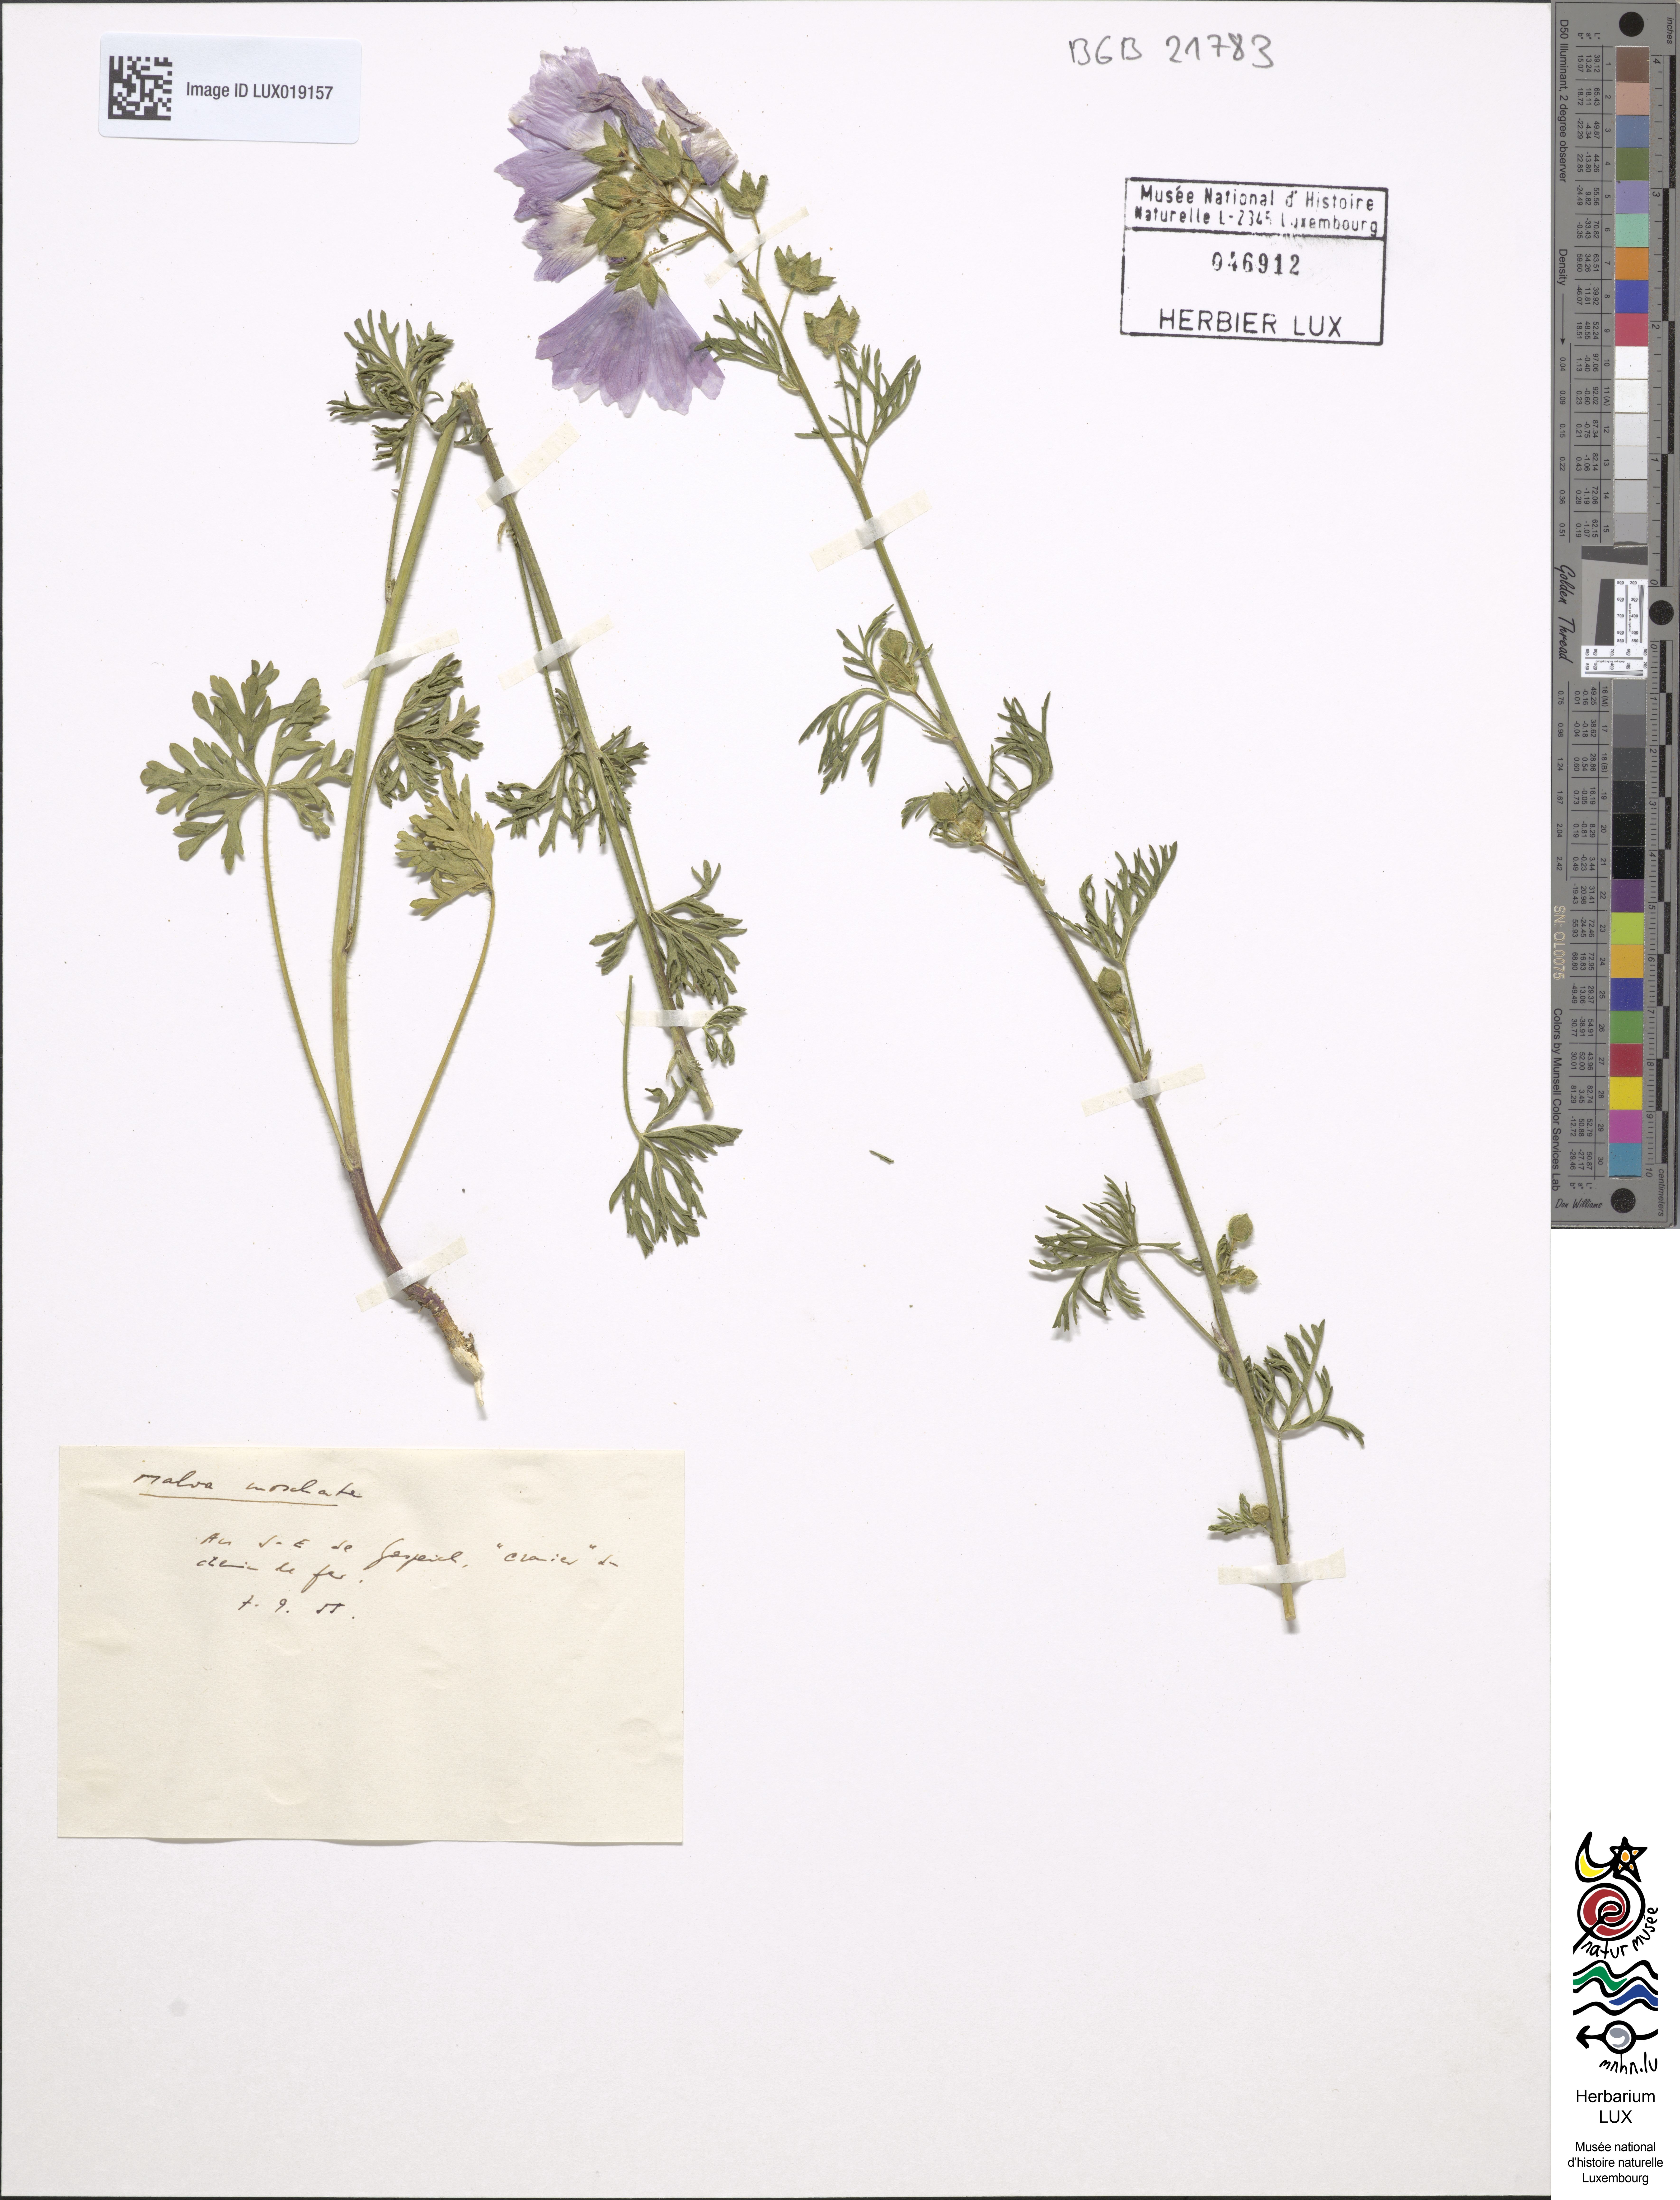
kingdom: Plantae
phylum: Tracheophyta
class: Magnoliopsida
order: Malvales
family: Malvaceae
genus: Malva
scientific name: Malva moschata
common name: Musk mallow
